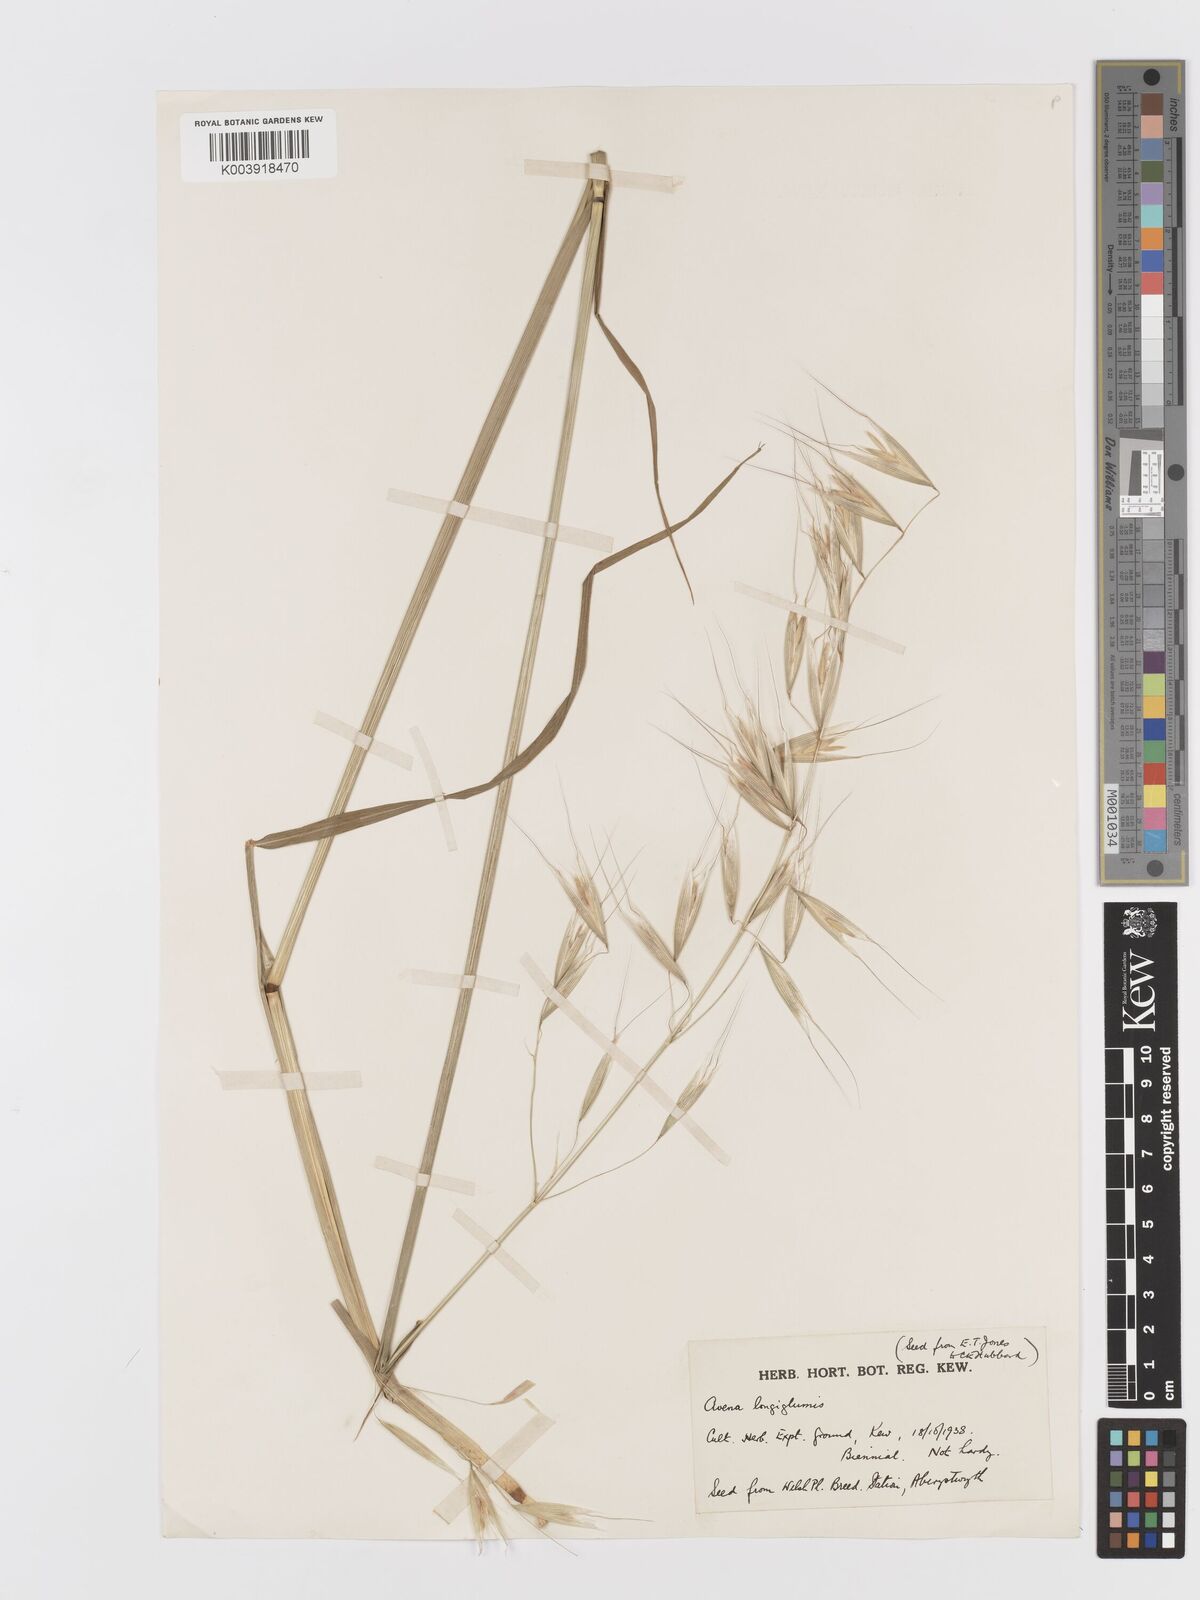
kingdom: Plantae
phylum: Tracheophyta
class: Liliopsida
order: Poales
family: Poaceae
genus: Avena
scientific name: Avena longiglumis
